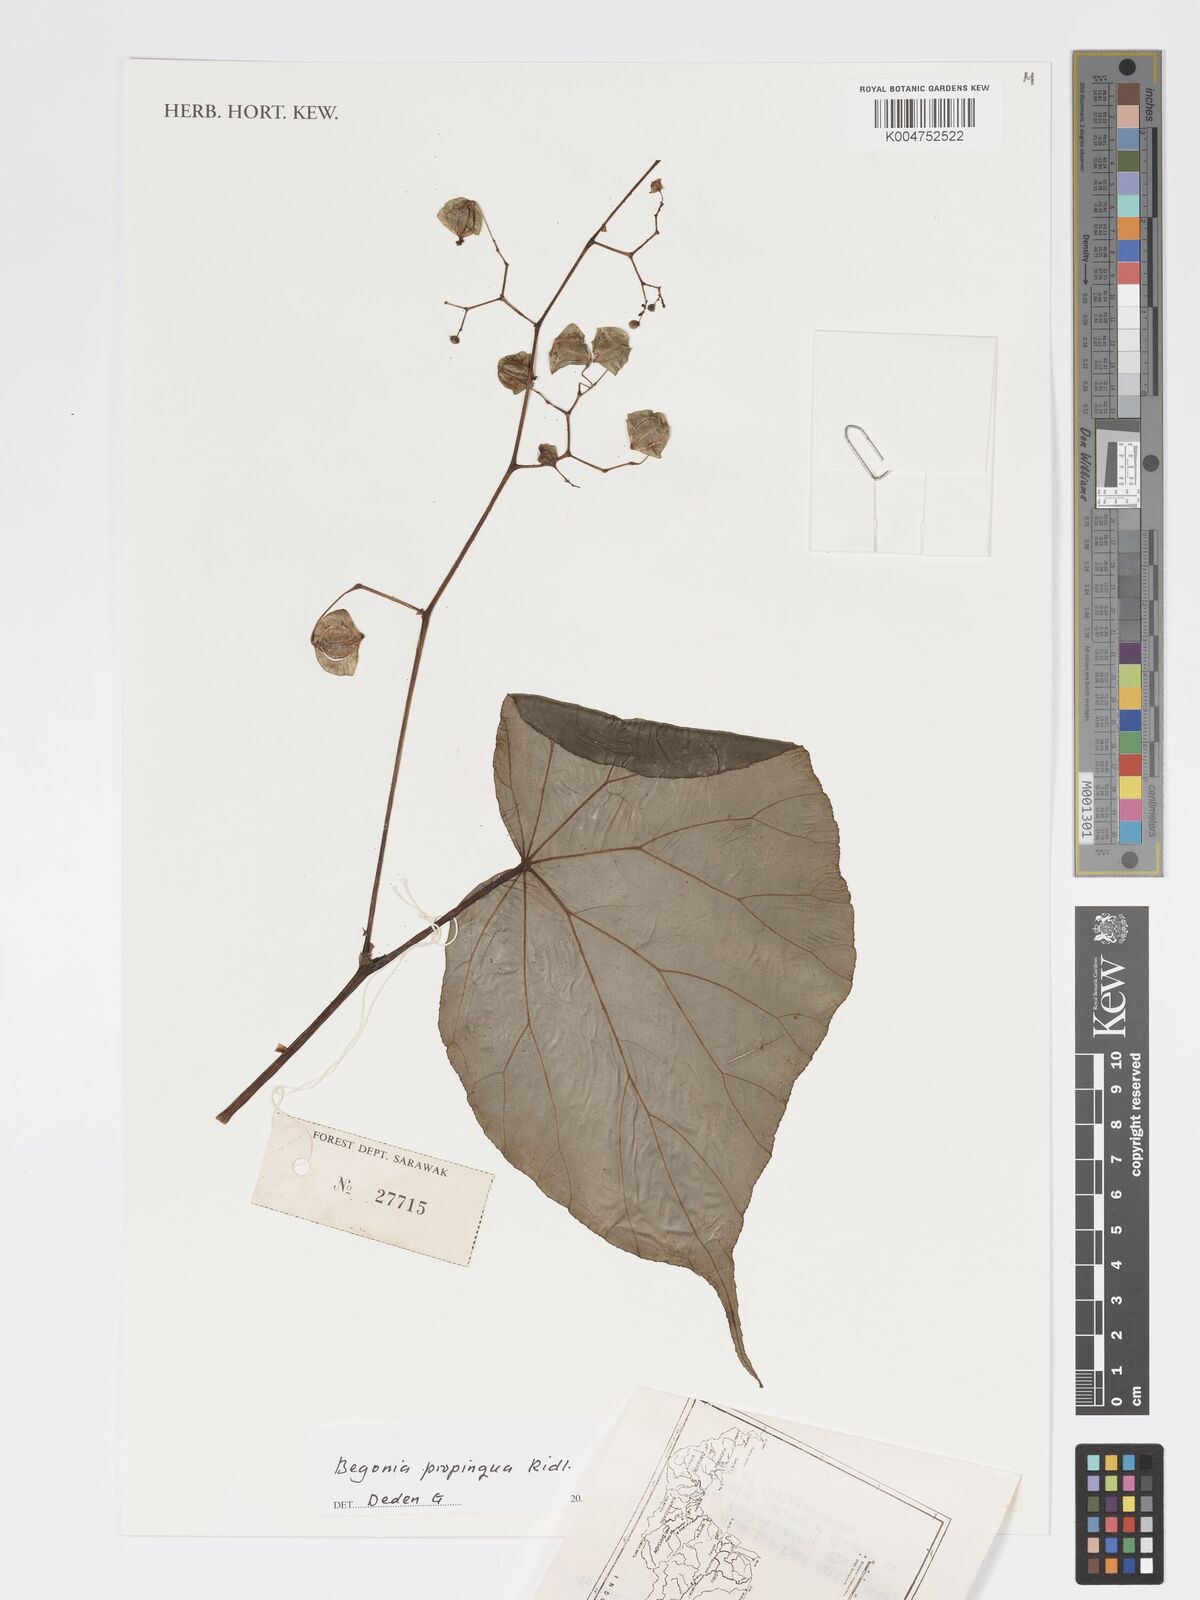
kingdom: Plantae
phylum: Tracheophyta
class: Magnoliopsida
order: Cucurbitales
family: Begoniaceae
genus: Begonia
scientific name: Begonia propinqua
